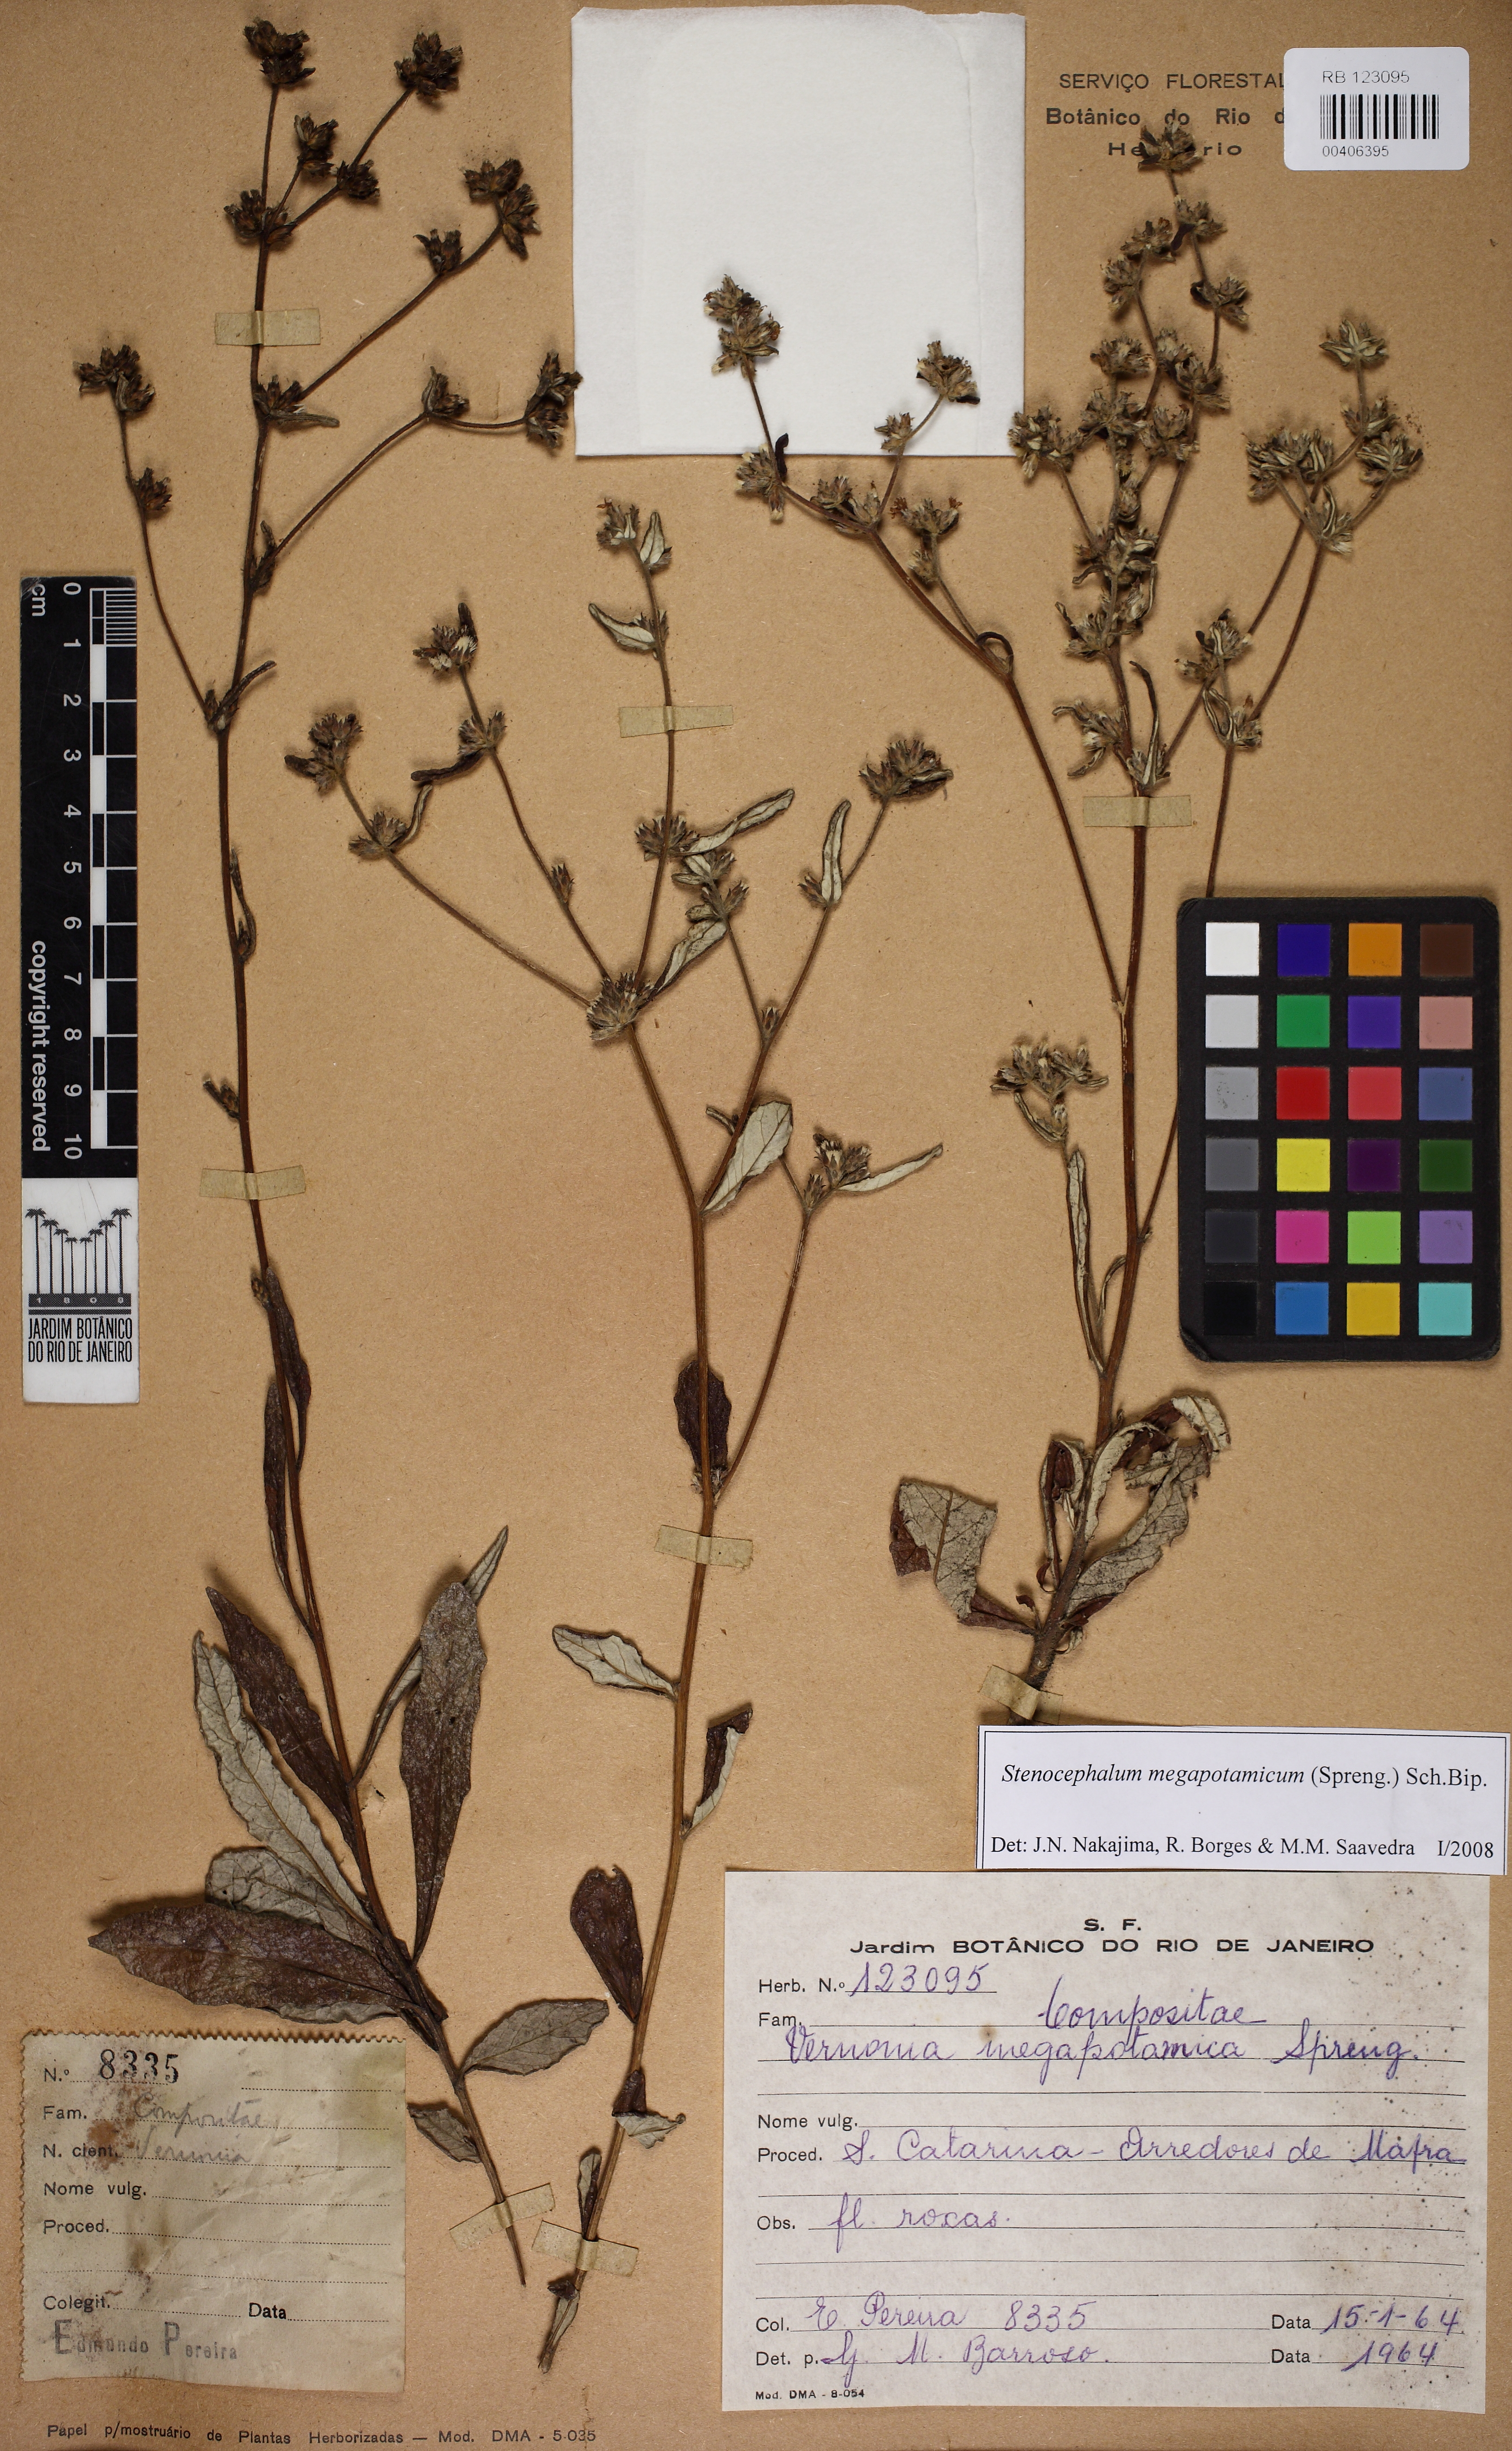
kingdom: Plantae
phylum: Tracheophyta
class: Magnoliopsida
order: Asterales
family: Asteraceae
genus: Stenocephalum
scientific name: Stenocephalum megapotamicum
